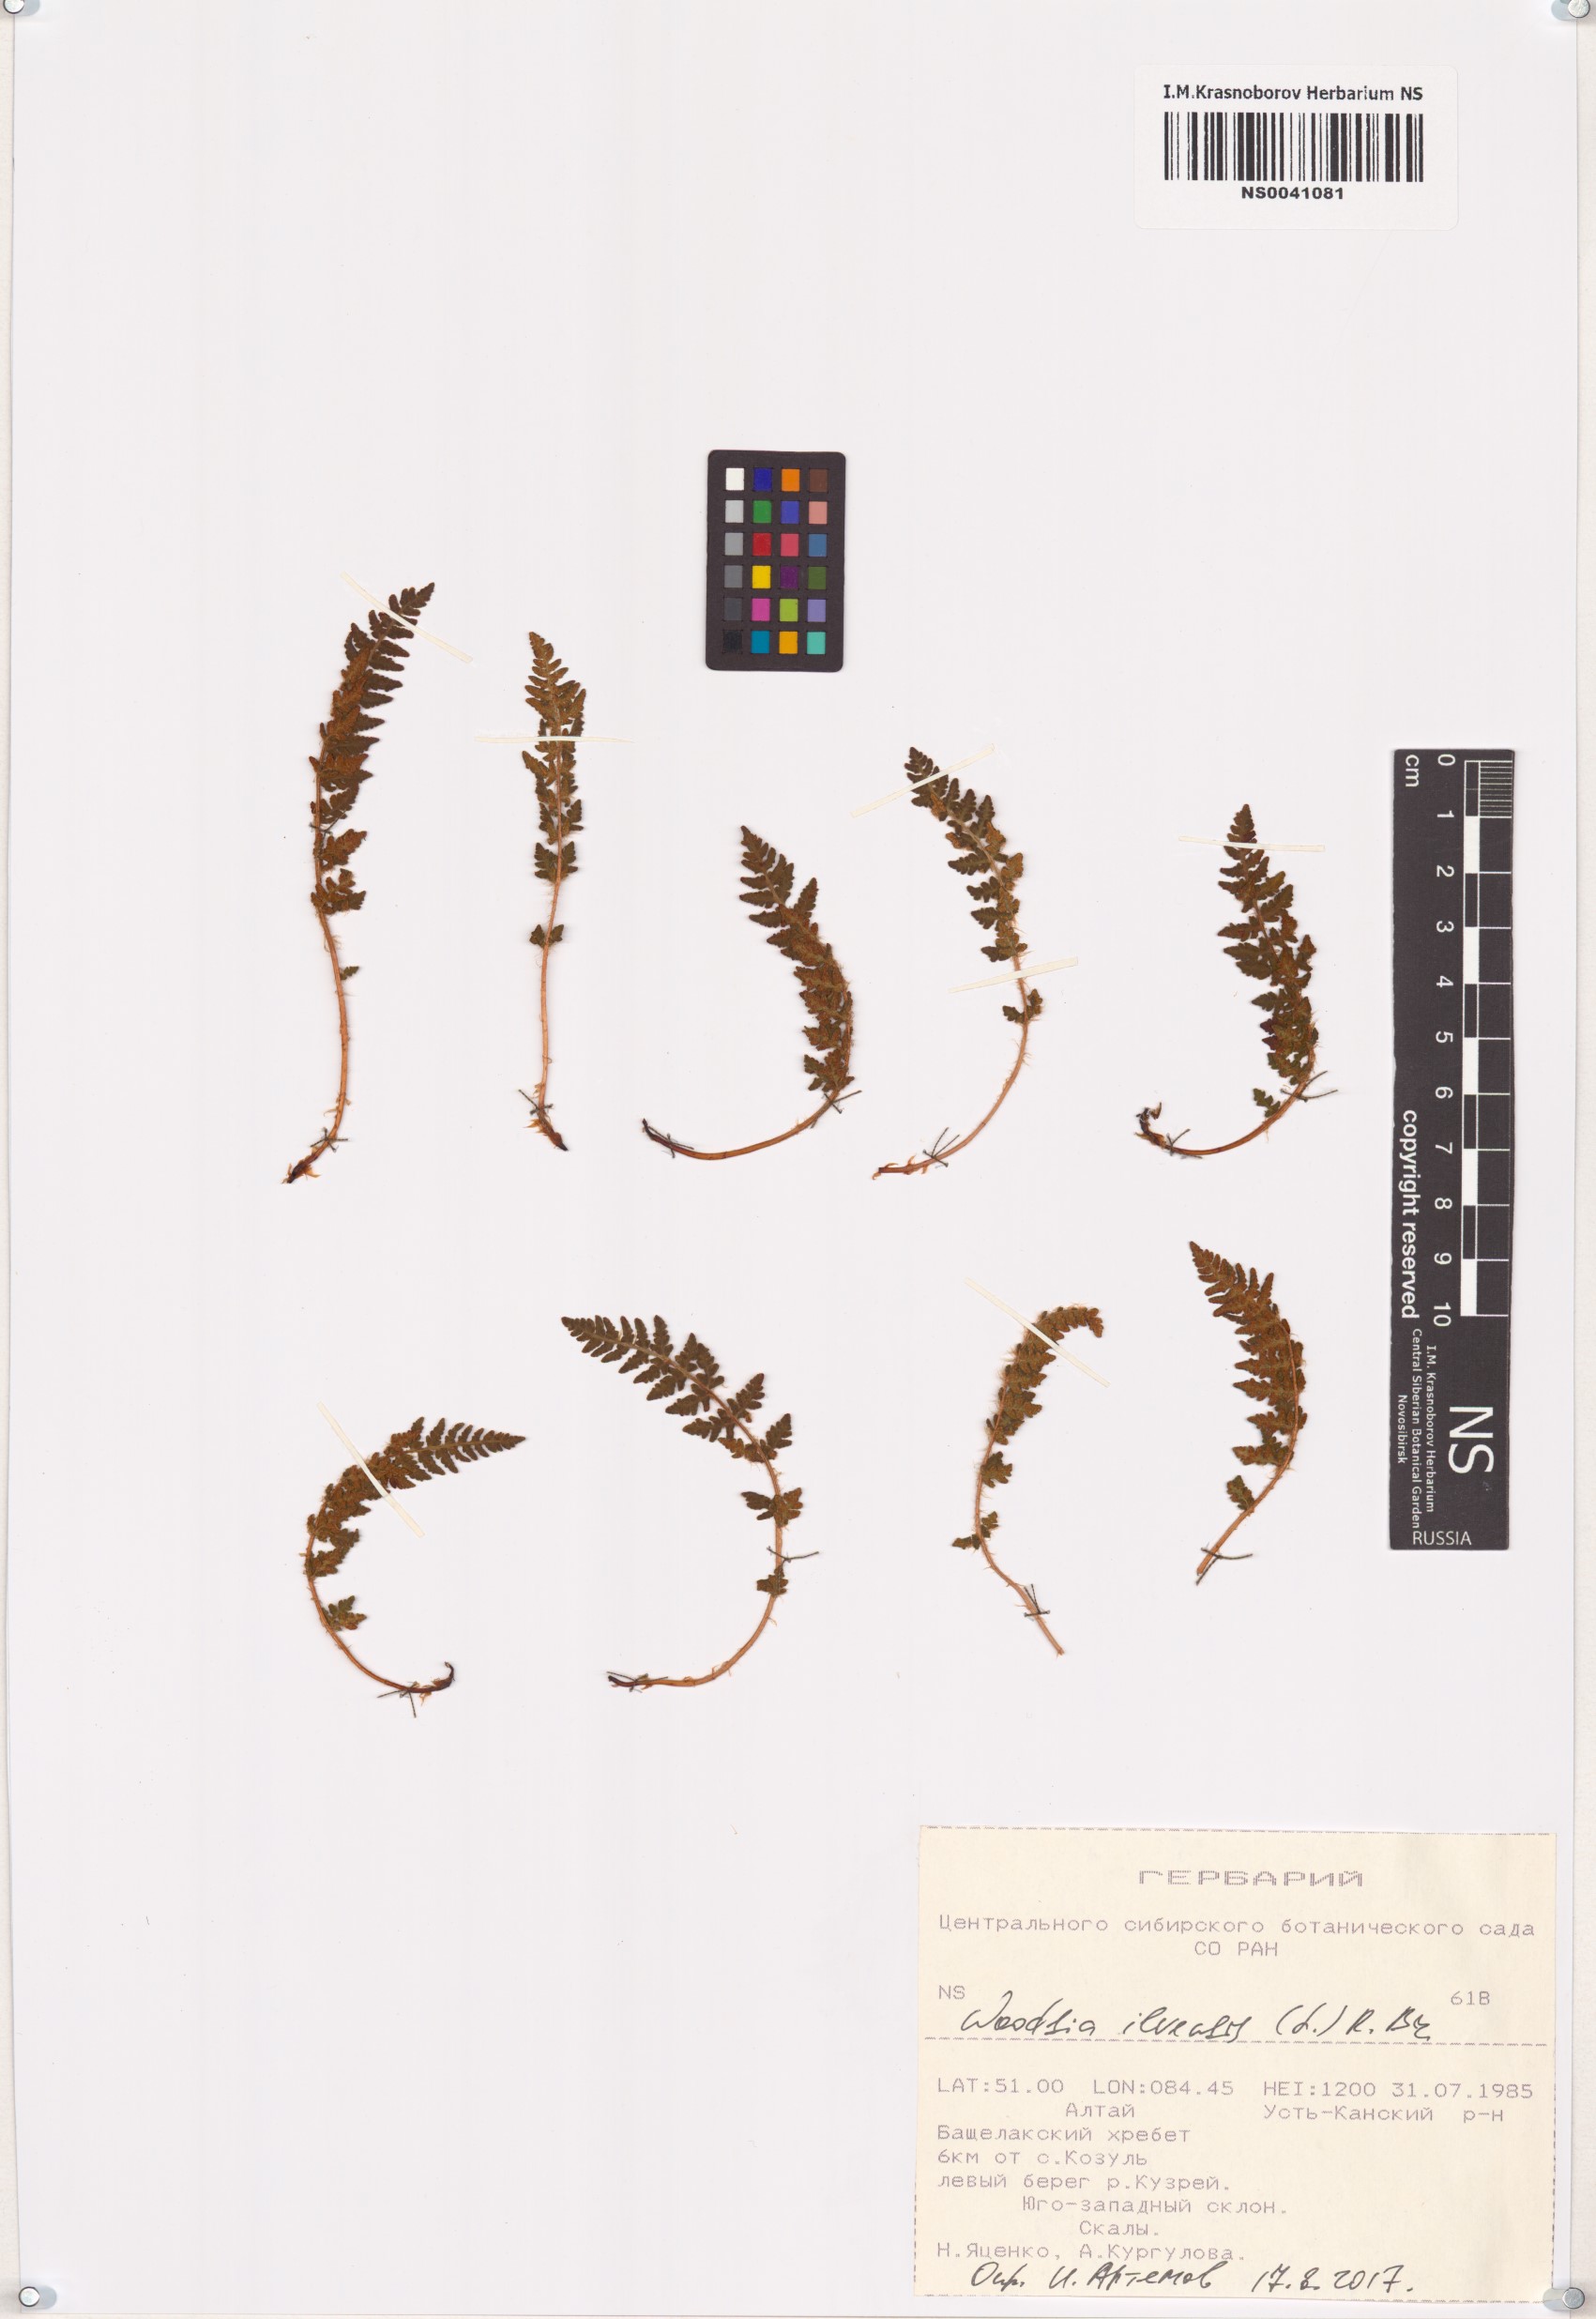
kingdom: Plantae
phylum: Tracheophyta
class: Polypodiopsida
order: Polypodiales
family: Woodsiaceae
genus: Woodsia
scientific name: Woodsia ilvensis
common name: Fragrant woodsia
